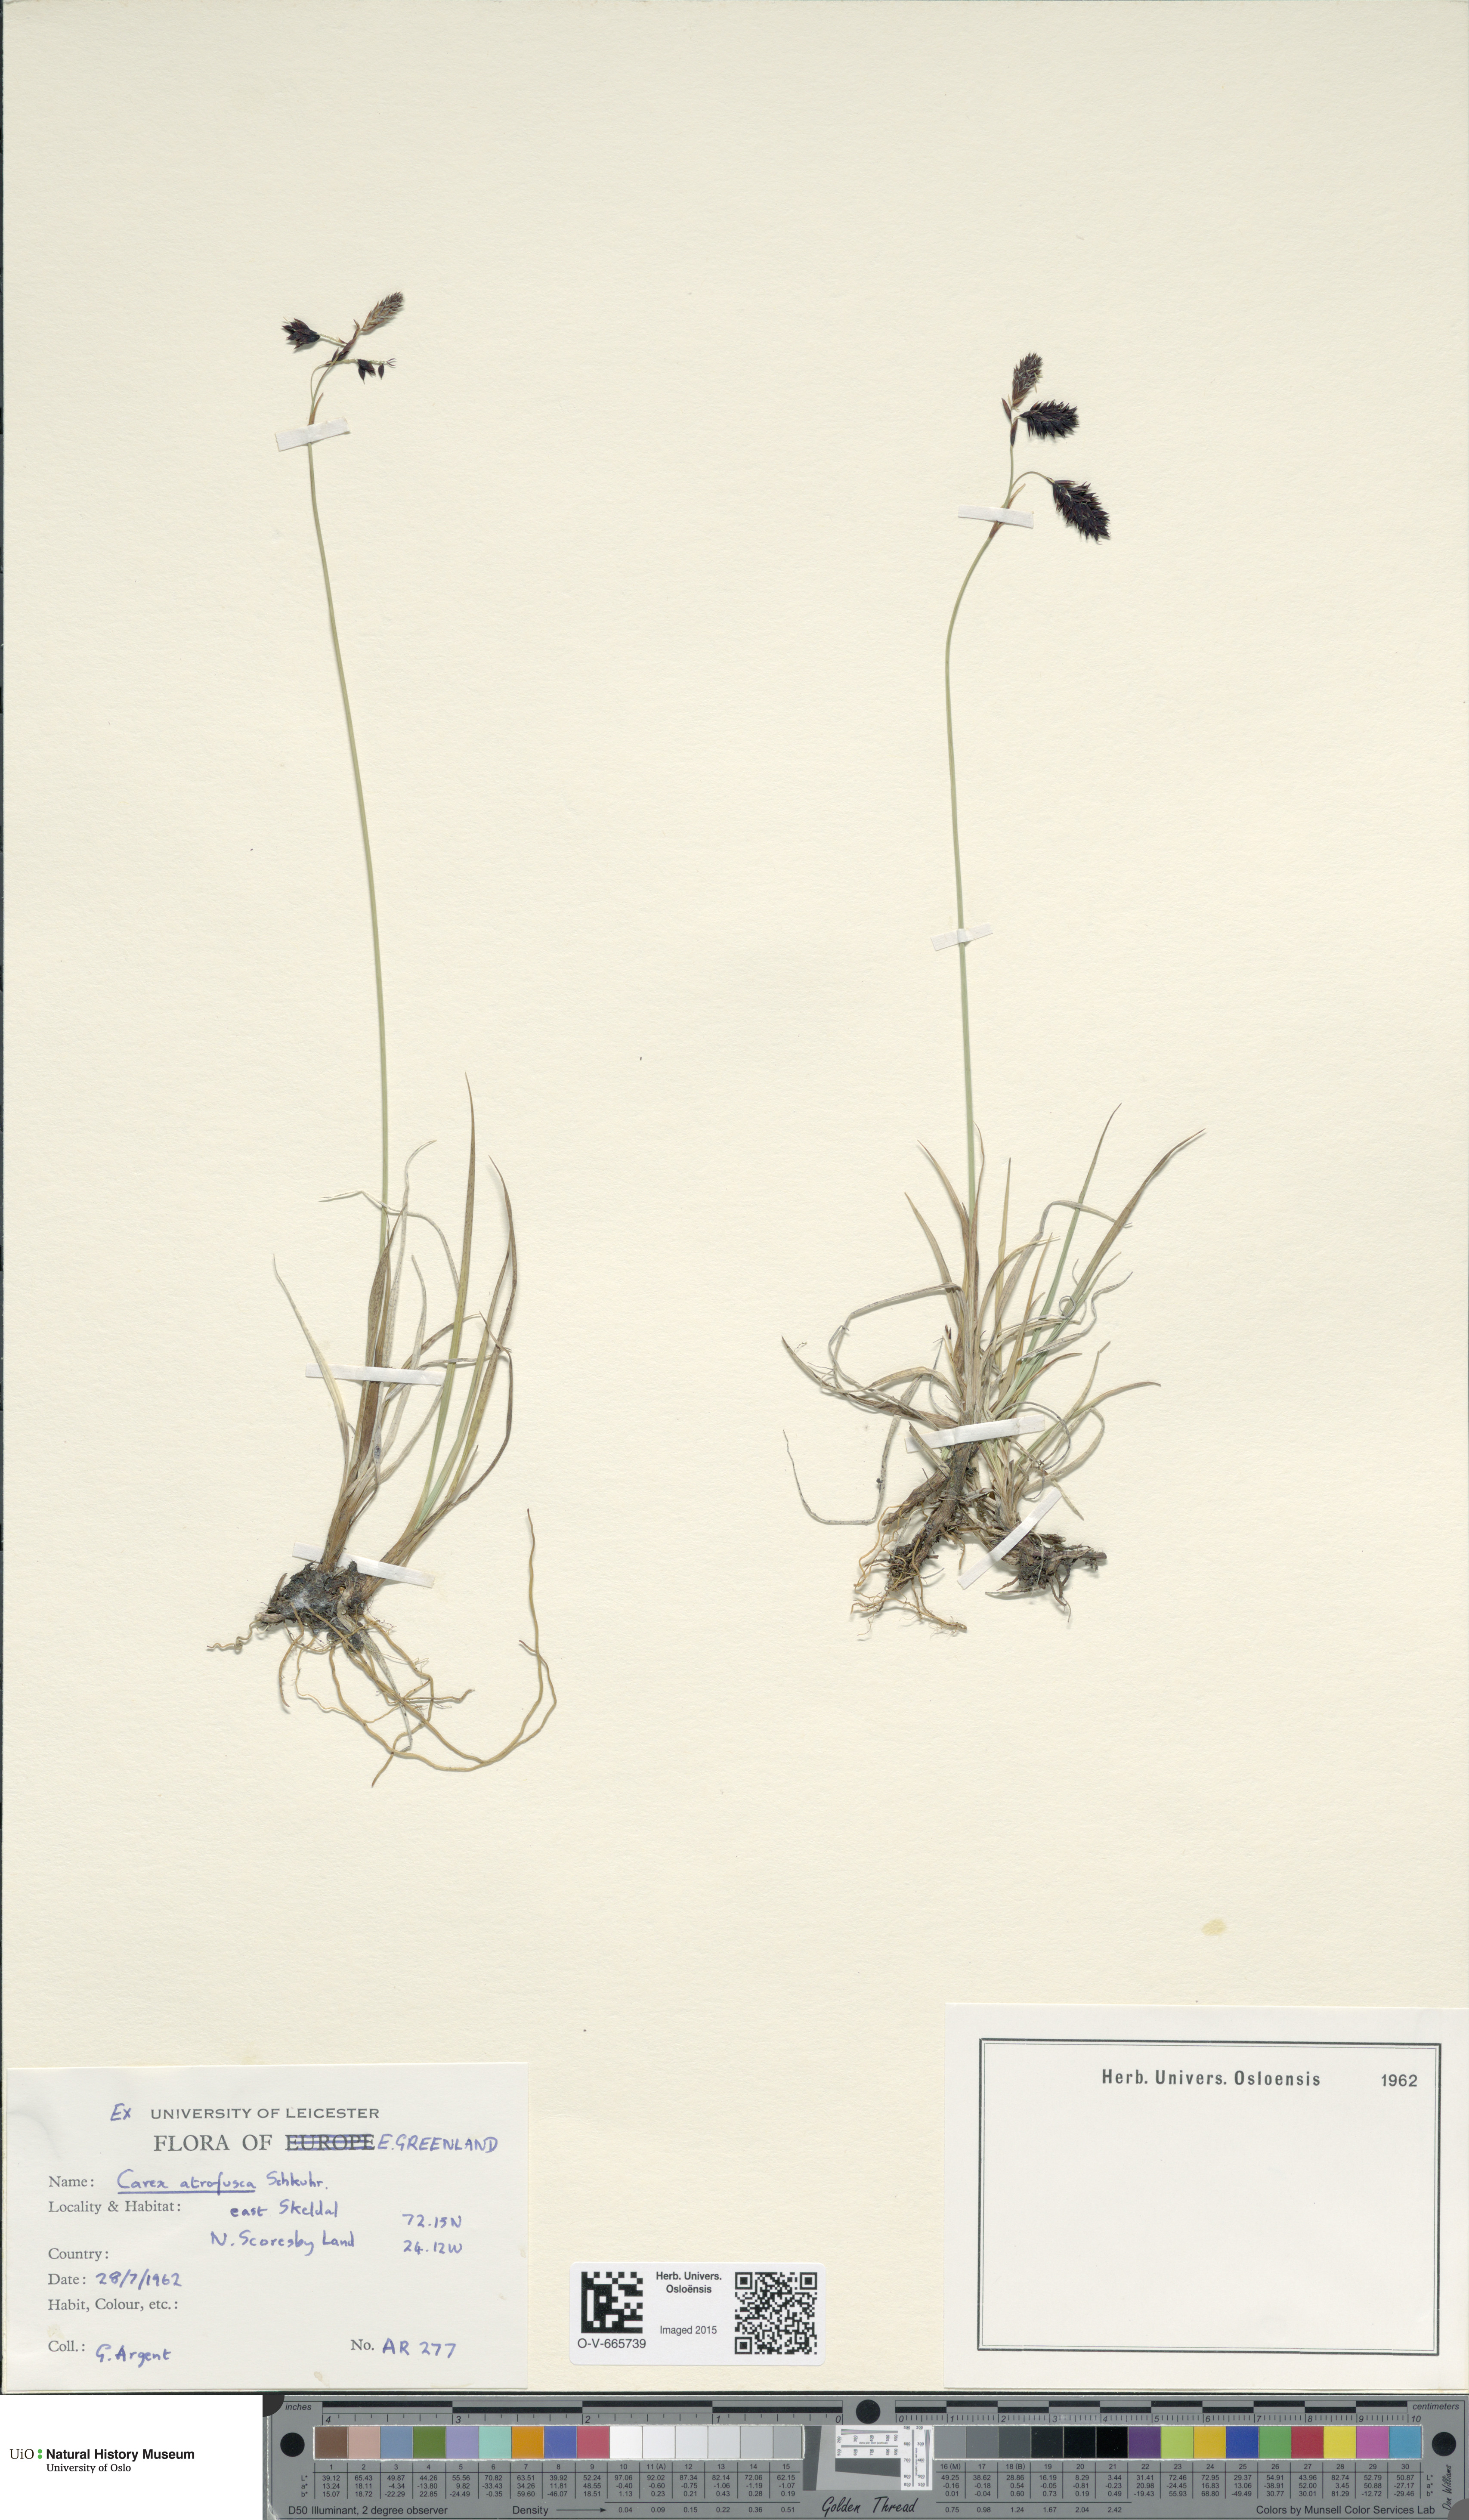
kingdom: Plantae
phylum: Tracheophyta
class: Liliopsida
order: Poales
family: Cyperaceae
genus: Carex
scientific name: Carex atrofusca
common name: Scorched alpine-sedge
